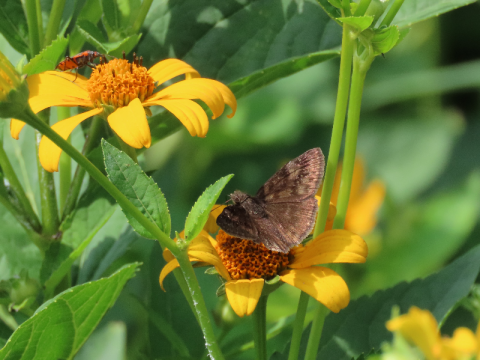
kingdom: Animalia
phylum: Arthropoda
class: Insecta
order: Lepidoptera
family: Hesperiidae
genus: Gesta
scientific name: Gesta
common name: Wild Indigo Duskywing
